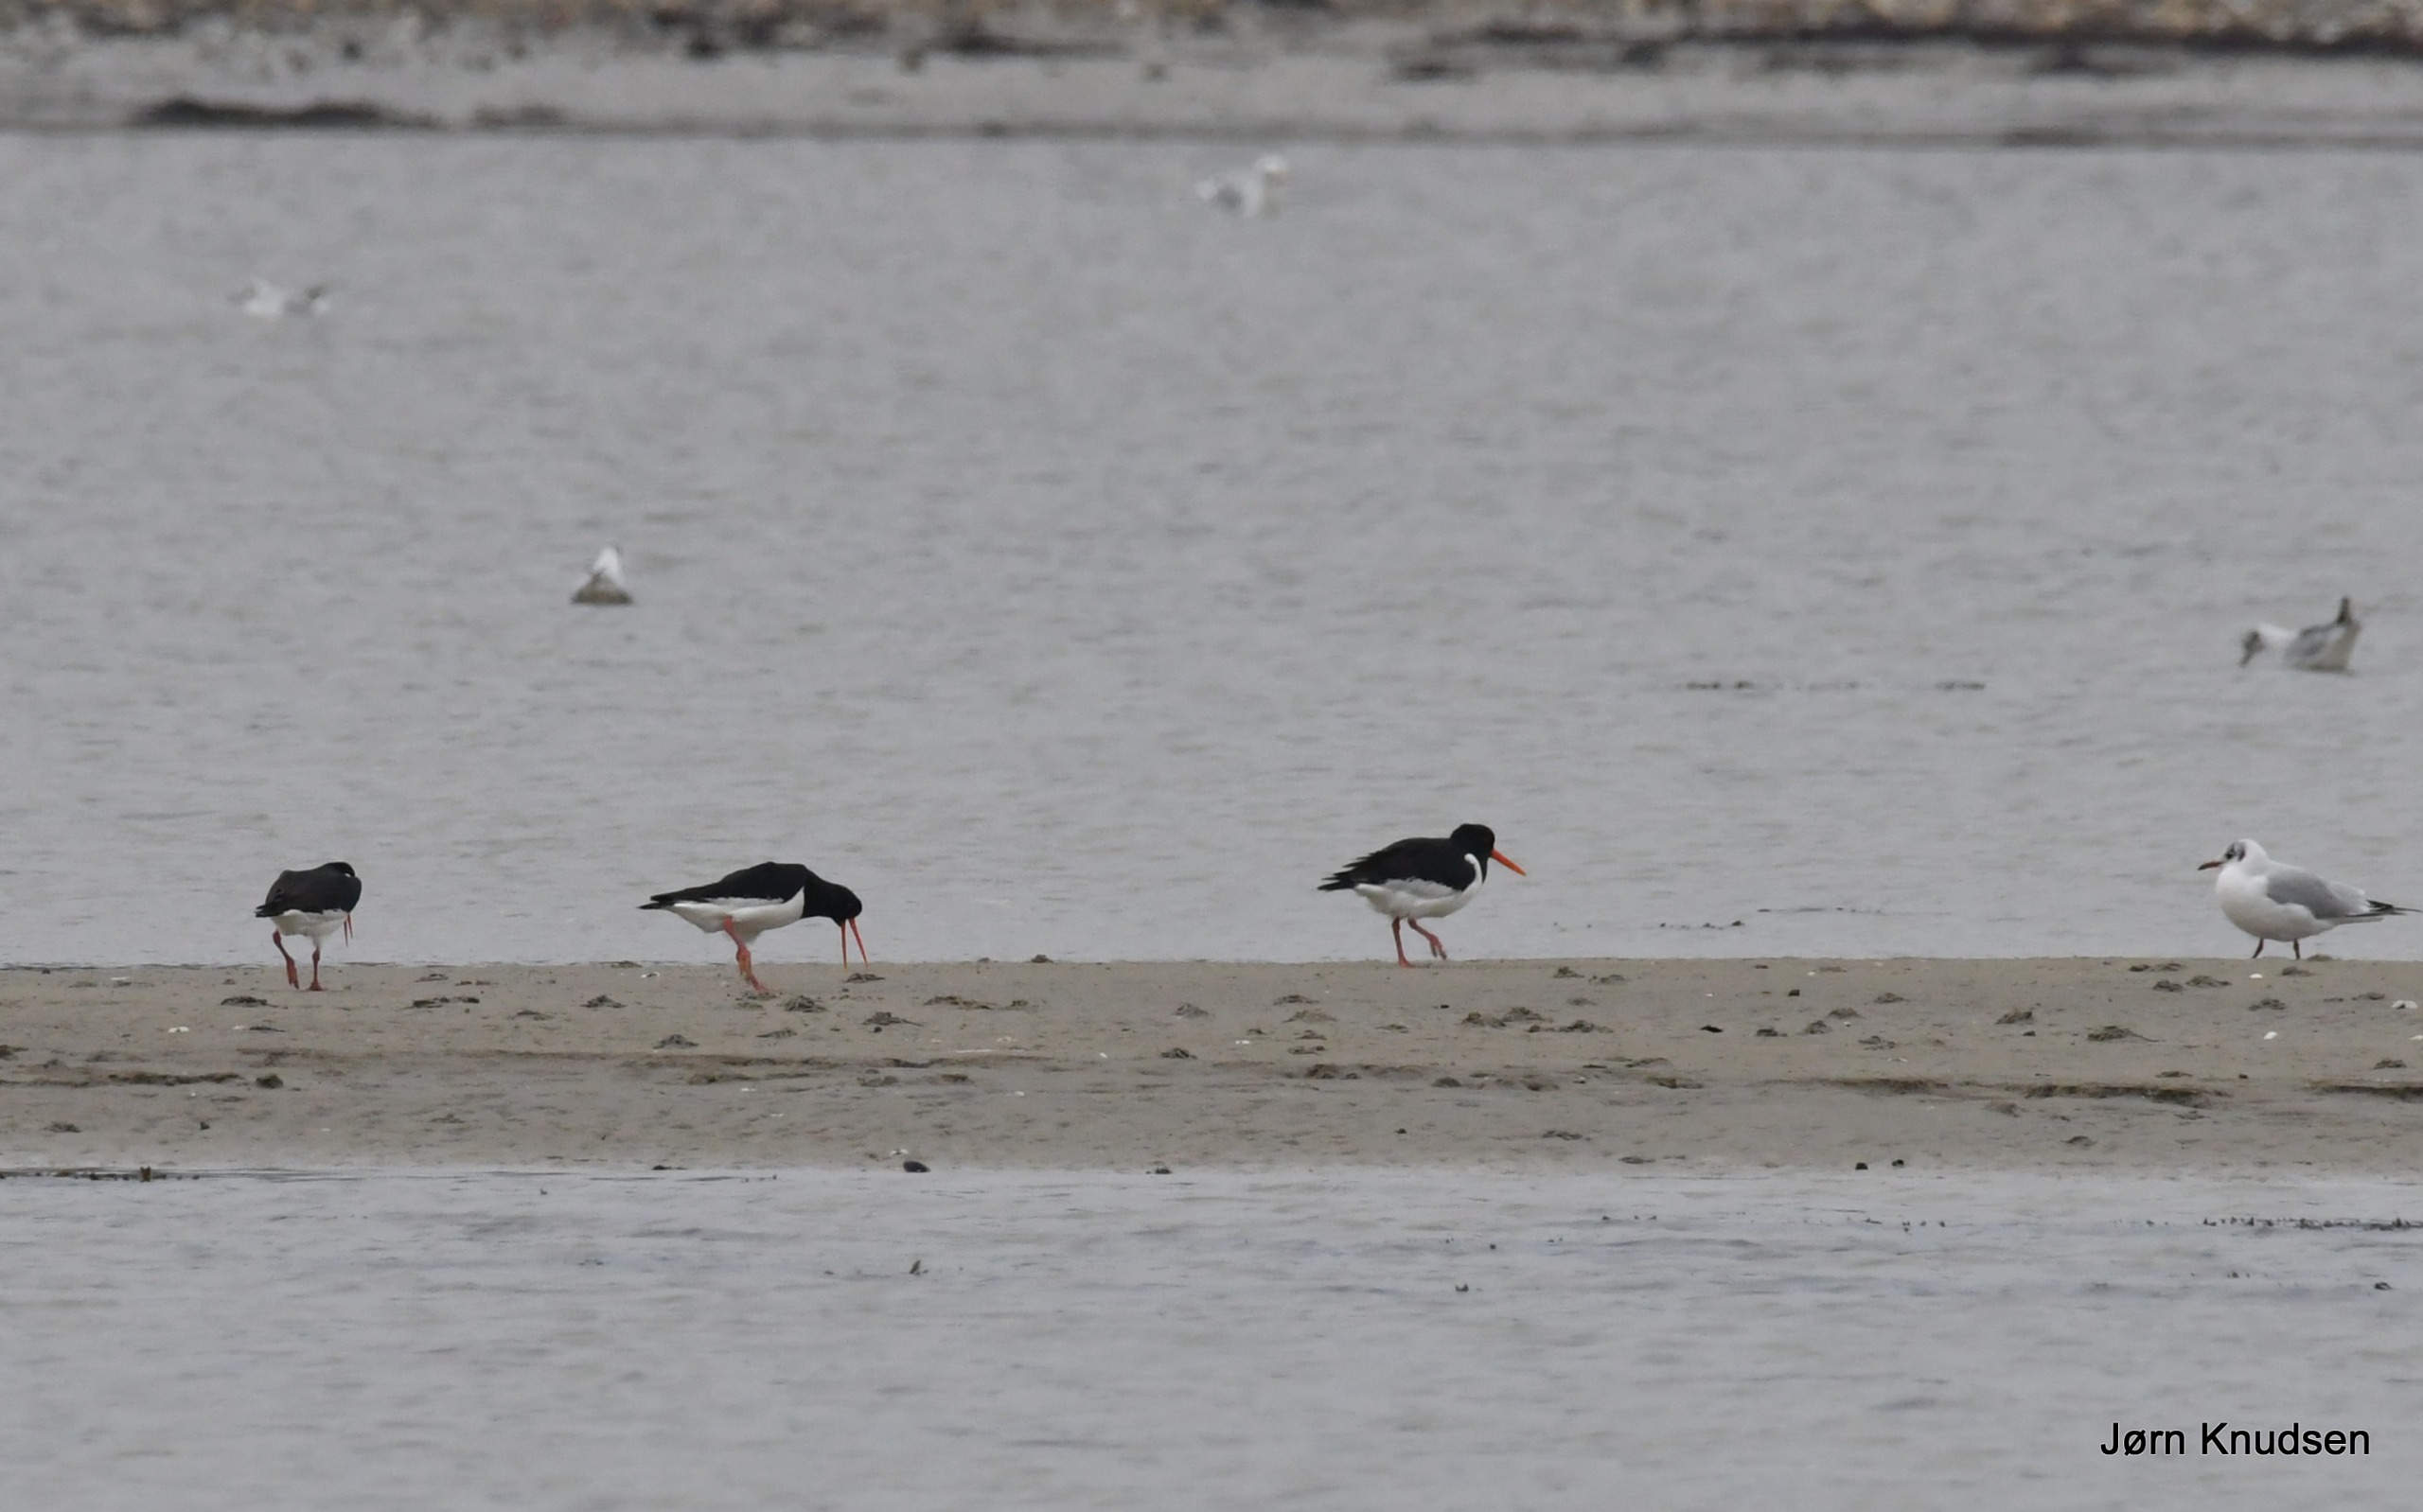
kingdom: Animalia
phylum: Chordata
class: Aves
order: Charadriiformes
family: Haematopodidae
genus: Haematopus
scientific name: Haematopus ostralegus
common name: Strandskade
